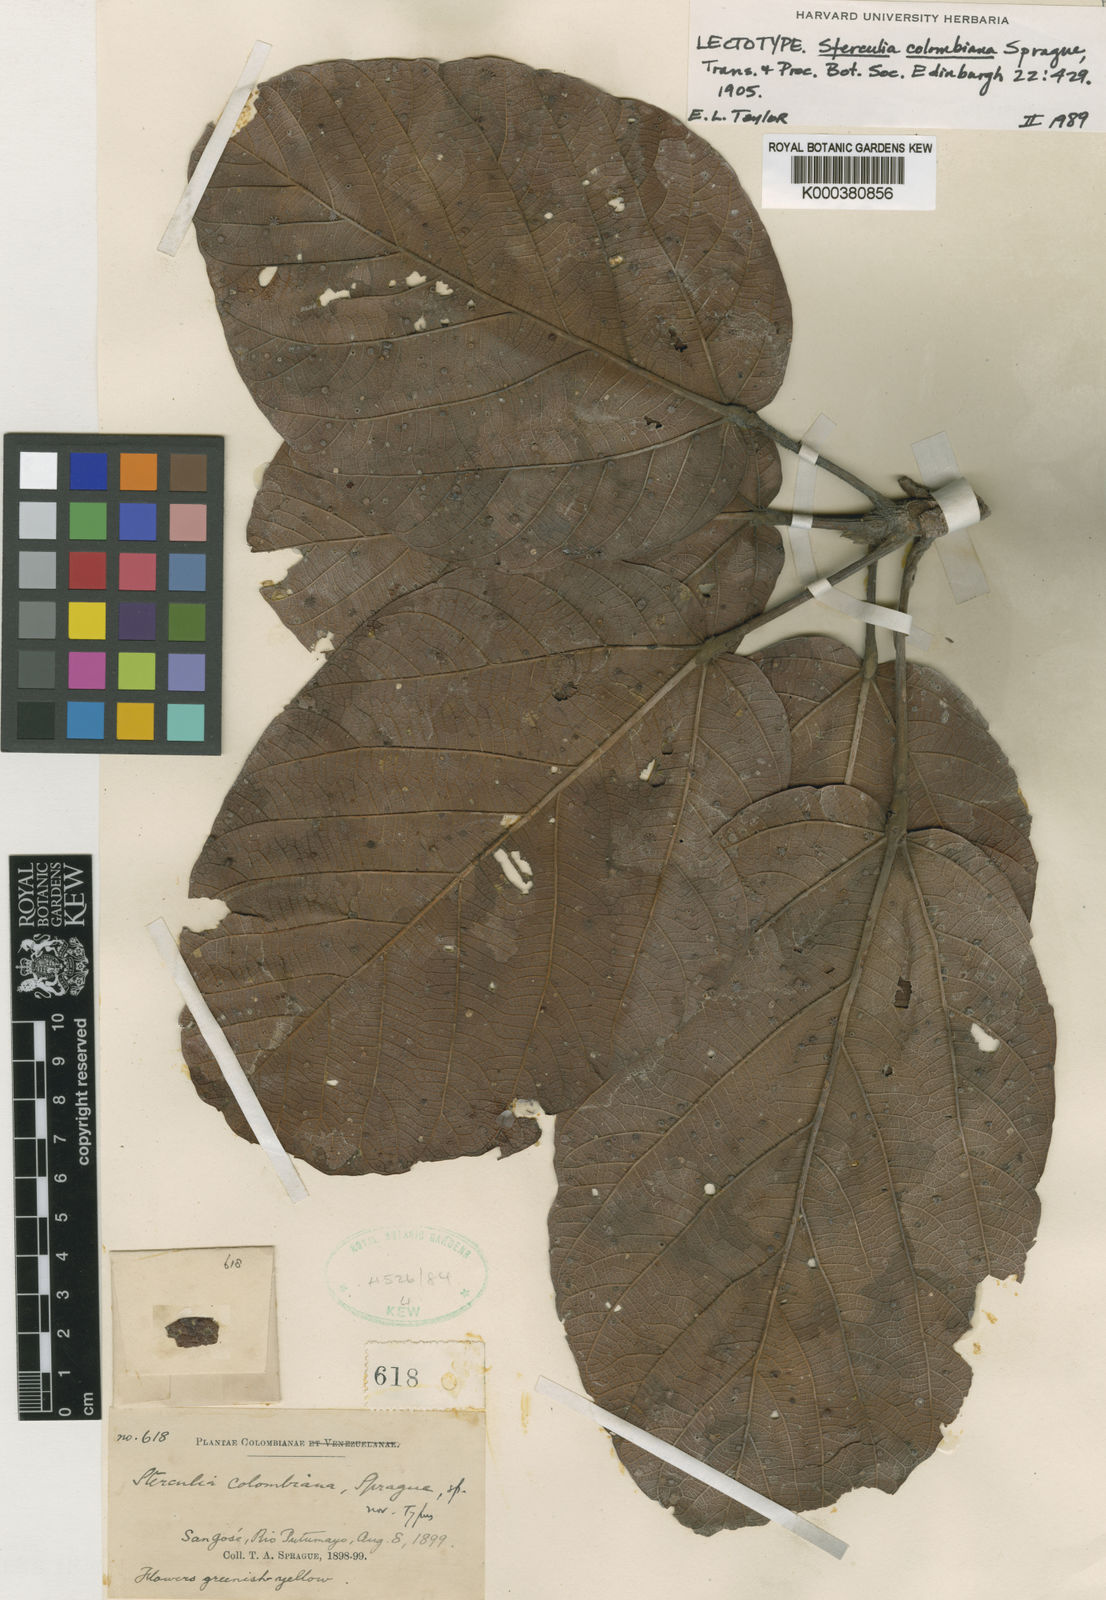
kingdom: Plantae
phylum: Tracheophyta
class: Magnoliopsida
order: Malvales
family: Malvaceae
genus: Sterculia
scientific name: Sterculia colombiana
